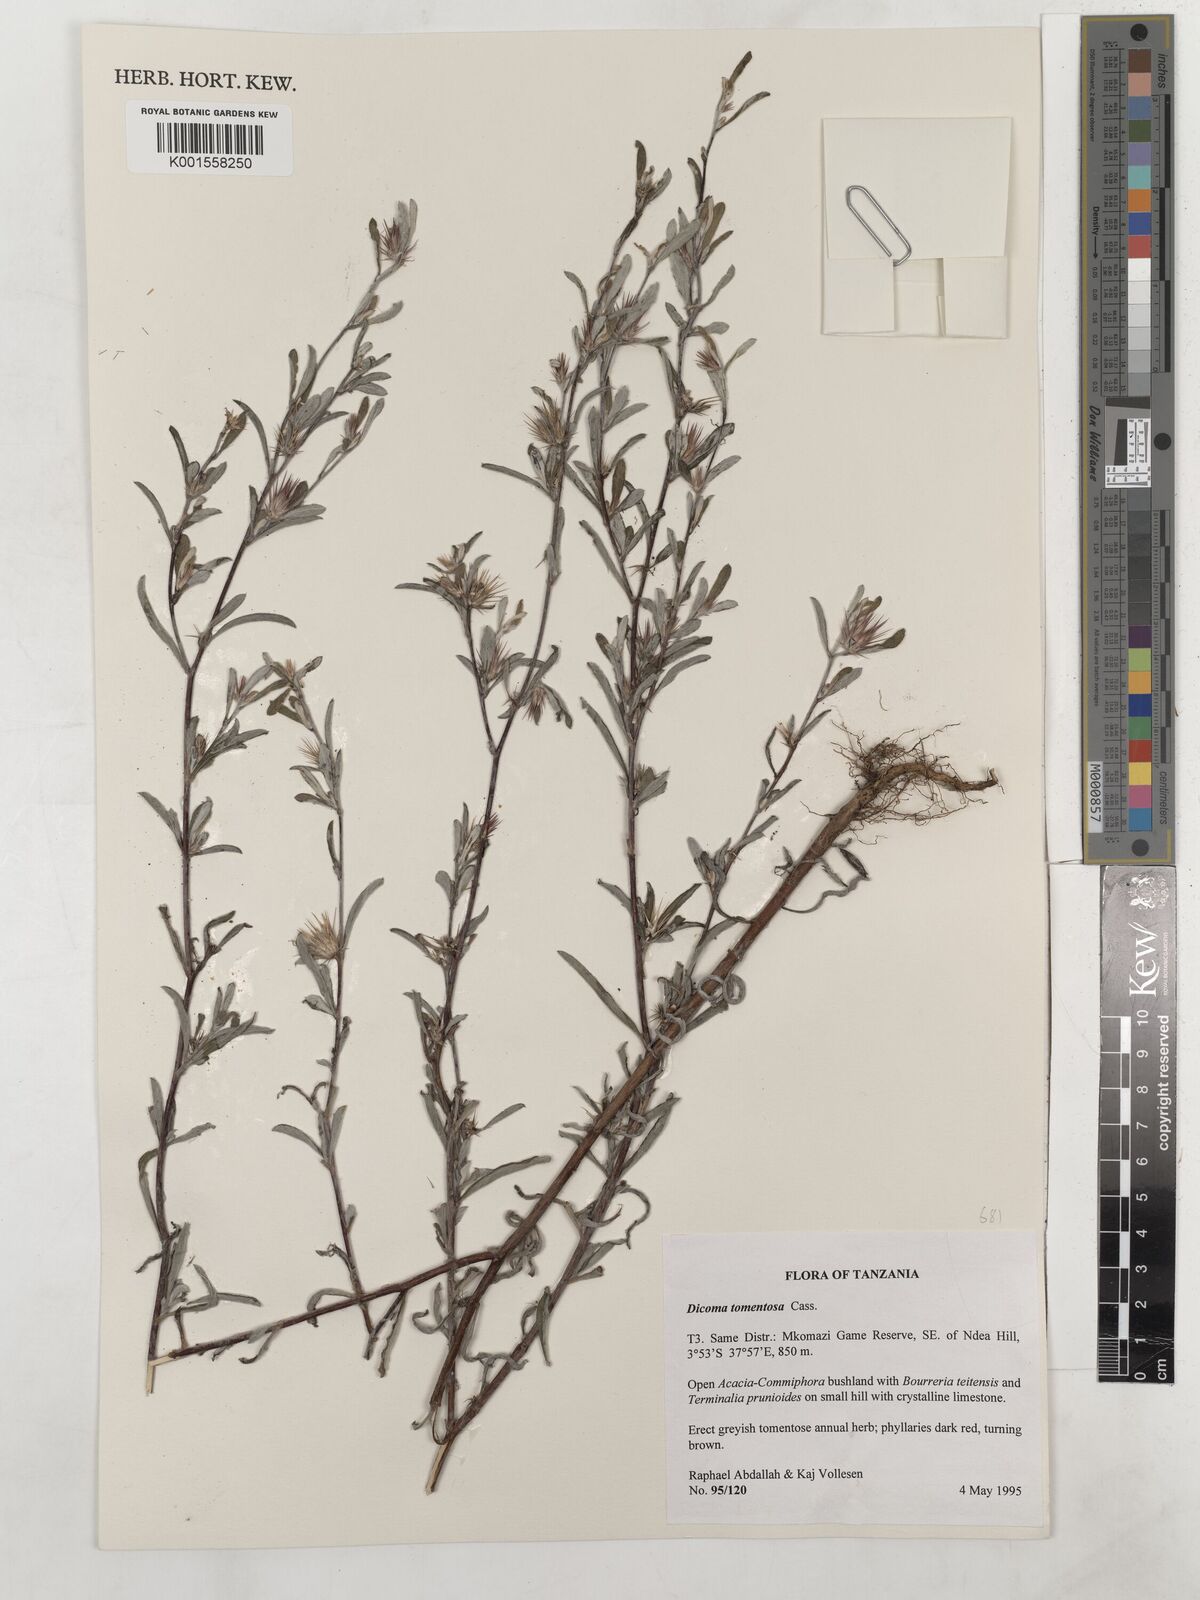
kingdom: Plantae
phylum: Tracheophyta
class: Magnoliopsida
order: Asterales
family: Asteraceae
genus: Dicoma
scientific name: Dicoma tomentosa
